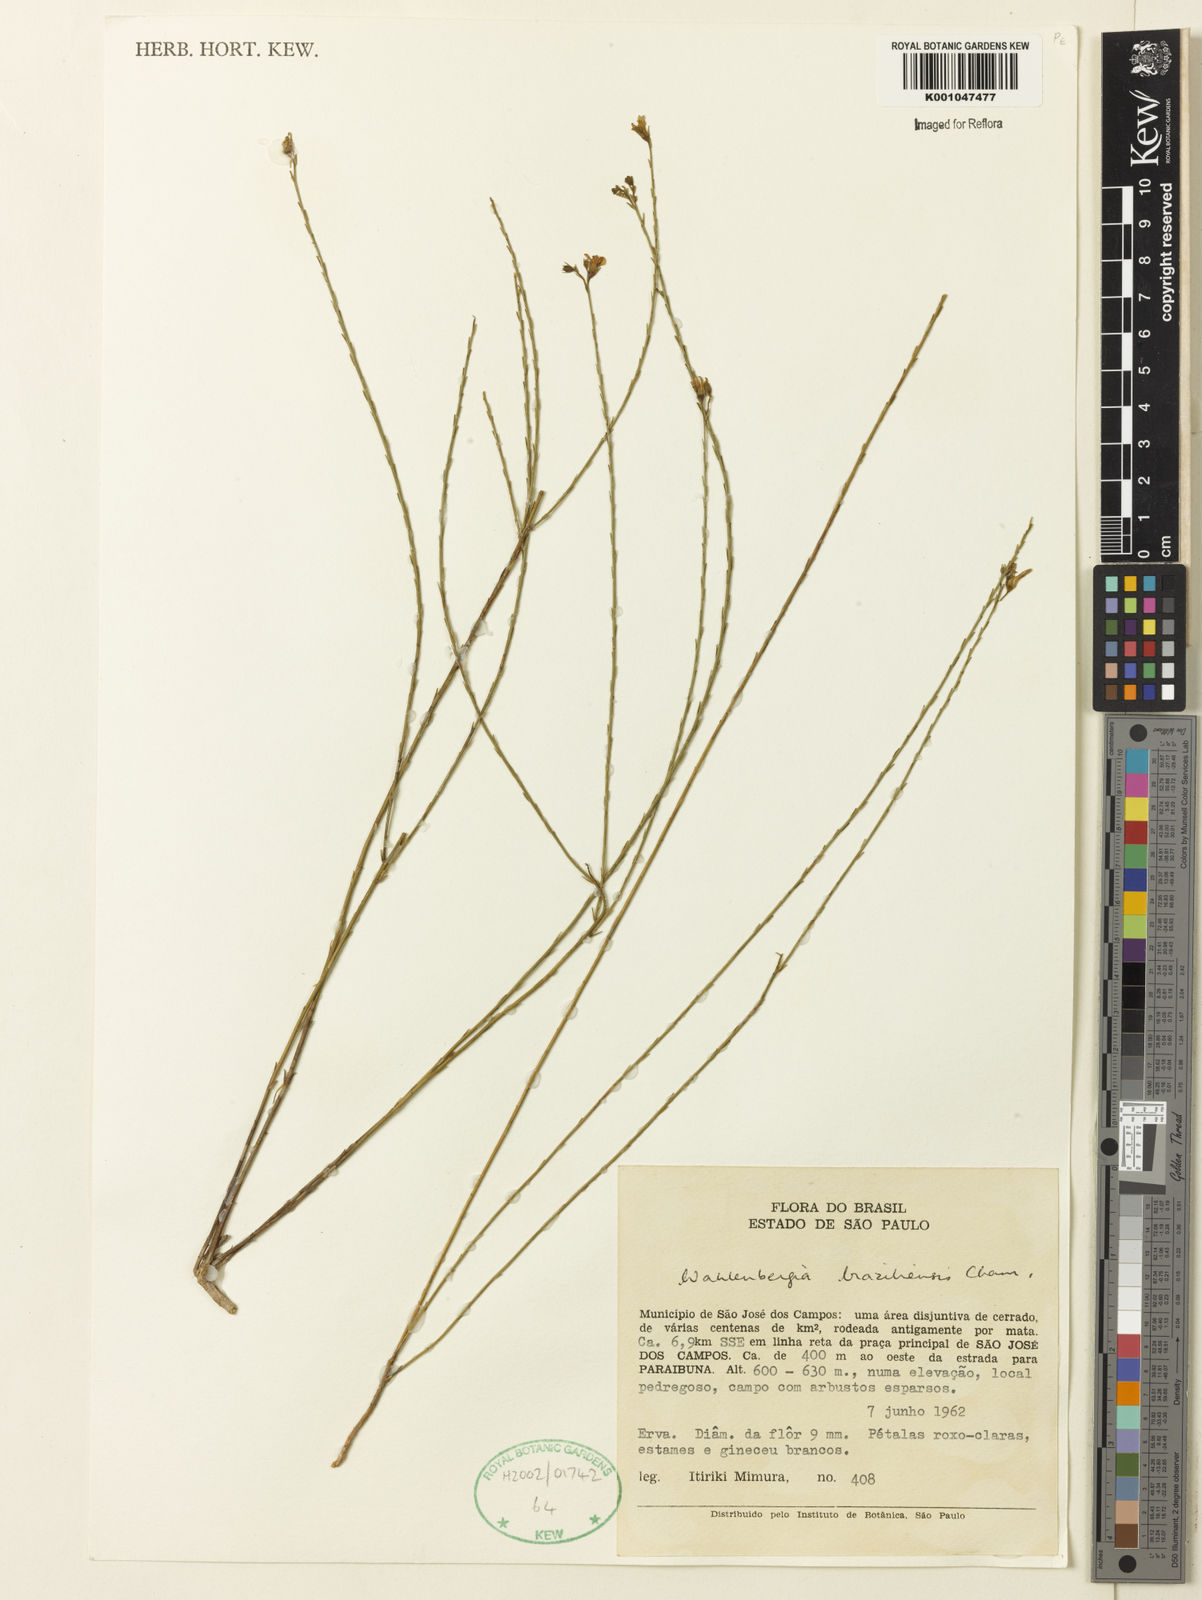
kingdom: Plantae
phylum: Tracheophyta
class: Magnoliopsida
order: Asterales
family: Campanulaceae
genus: Wahlenbergia
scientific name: Wahlenbergia brasiliensis
